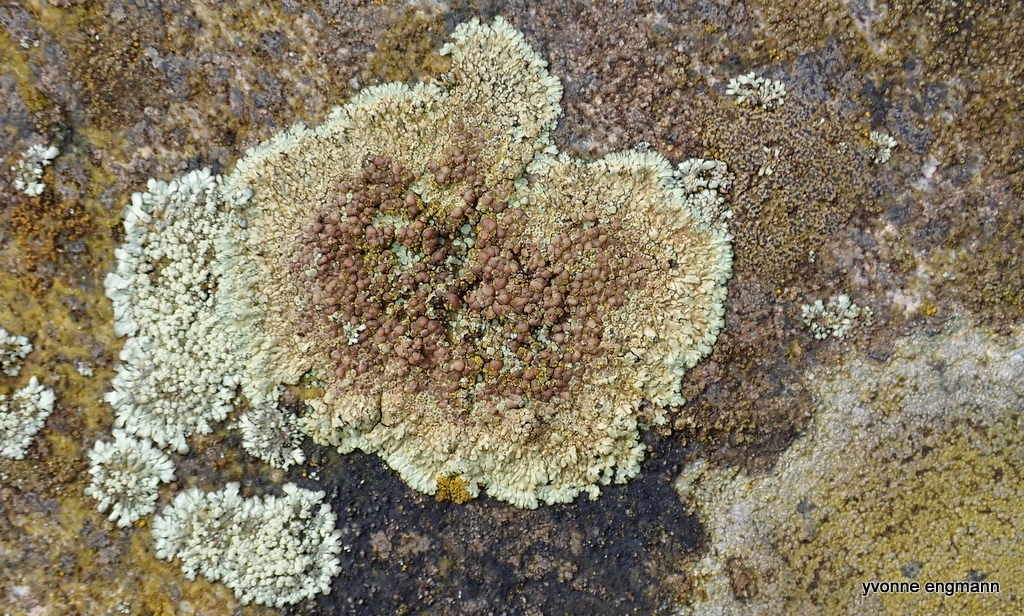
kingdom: Fungi
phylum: Ascomycota
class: Lecanoromycetes
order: Lecanorales
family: Lecanoraceae
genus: Protoparmeliopsis
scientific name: Protoparmeliopsis muralis
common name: randfliget kantskivelav
